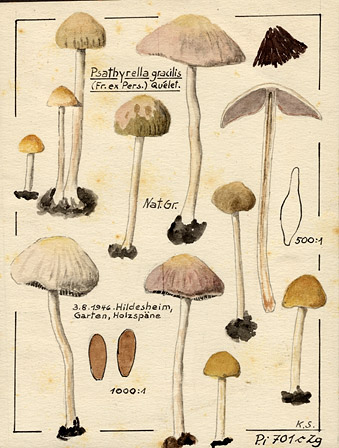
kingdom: Fungi
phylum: Basidiomycota
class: Agaricomycetes
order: Agaricales
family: Psathyrellaceae
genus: Psathyrella
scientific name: Psathyrella corrugis
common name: Red edge brittlestem
